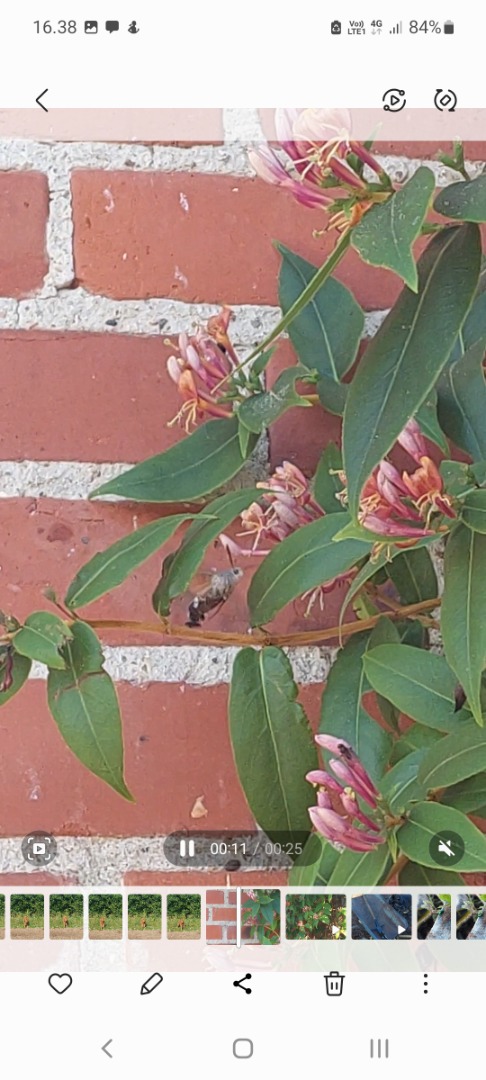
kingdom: Animalia
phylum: Arthropoda
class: Insecta
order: Lepidoptera
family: Sphingidae
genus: Macroglossum
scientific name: Macroglossum stellatarum
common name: Duehale
